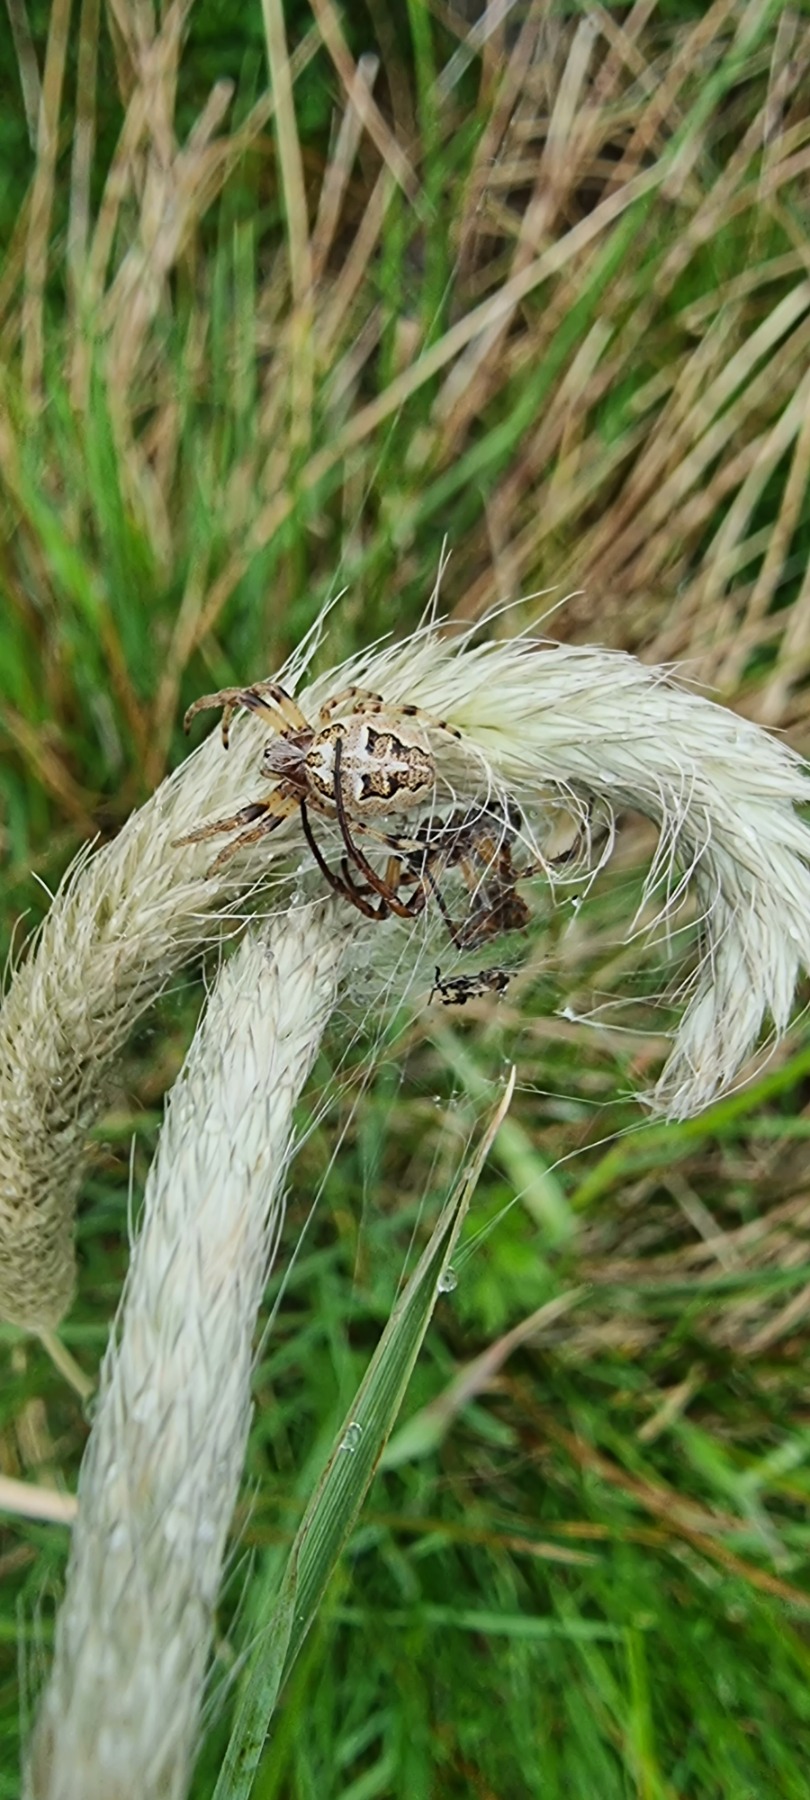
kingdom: Animalia
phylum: Arthropoda
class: Arachnida
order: Araneae
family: Araneidae
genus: Larinioides
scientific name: Larinioides cornutus
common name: Sivhjulspinder
